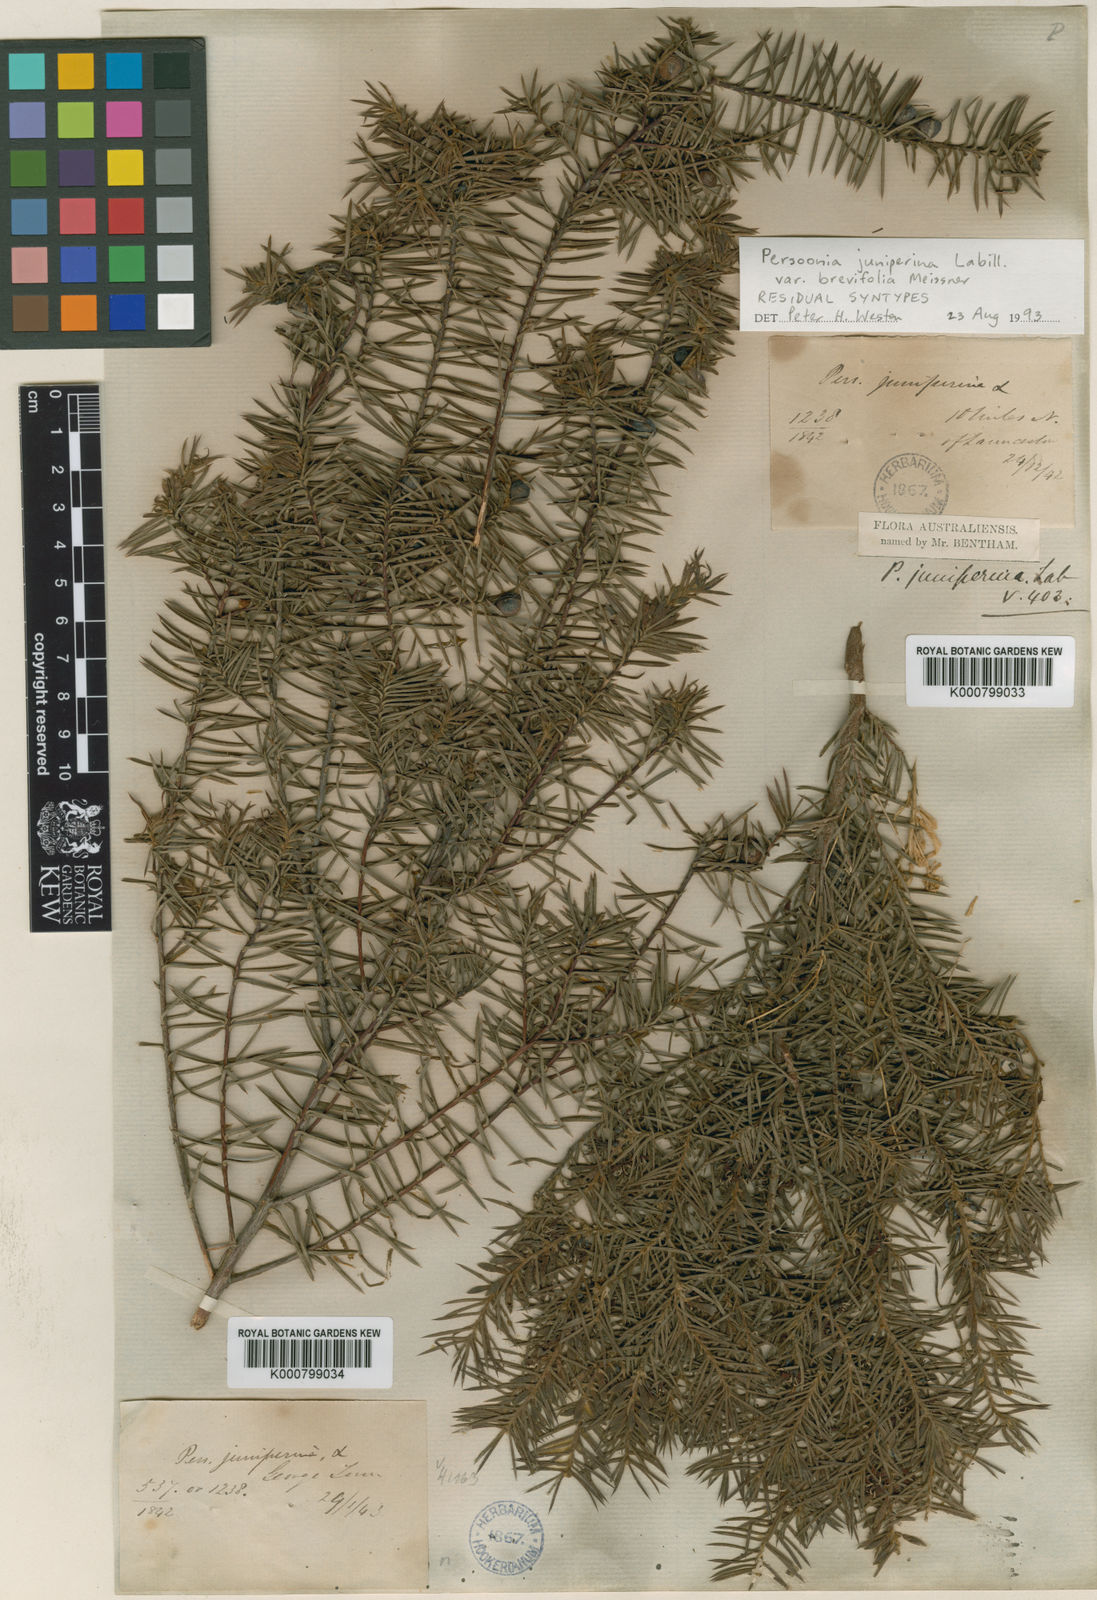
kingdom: Plantae
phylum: Tracheophyta
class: Magnoliopsida
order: Proteales
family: Proteaceae
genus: Persoonia
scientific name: Persoonia juniperina
